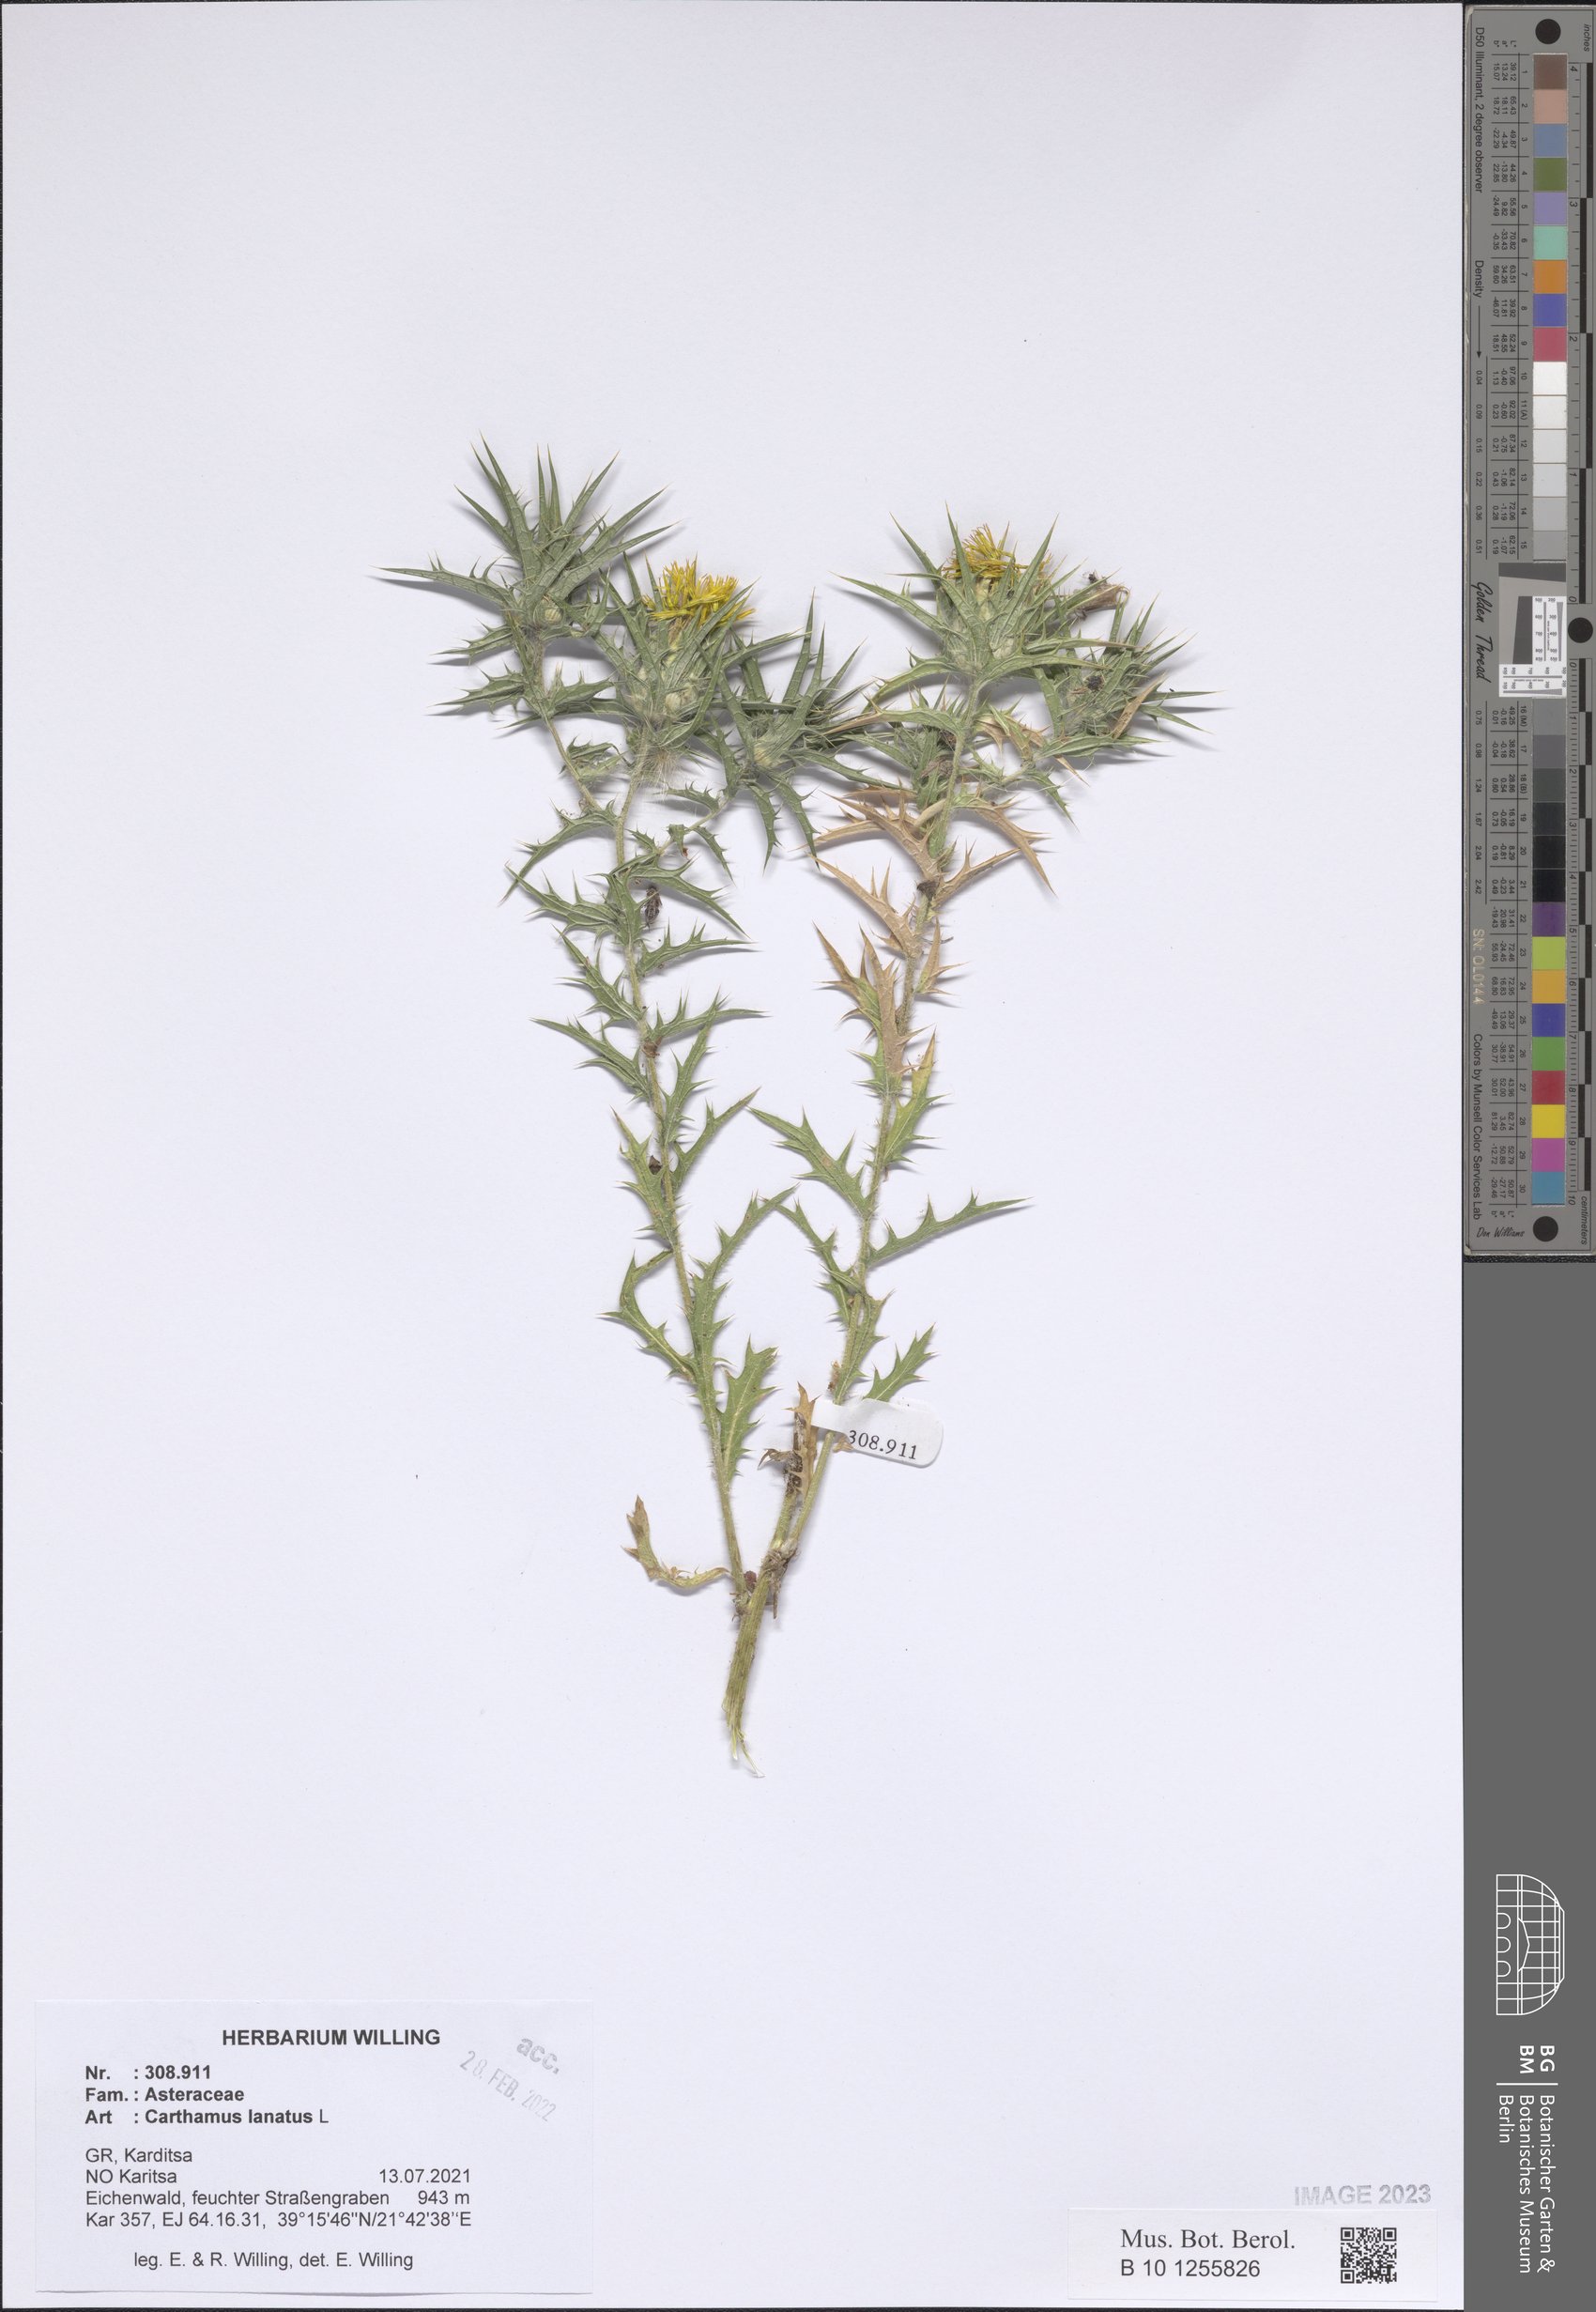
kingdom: Plantae
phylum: Tracheophyta
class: Magnoliopsida
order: Asterales
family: Asteraceae
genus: Carthamus
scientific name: Carthamus lanatus
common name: Downy safflower
